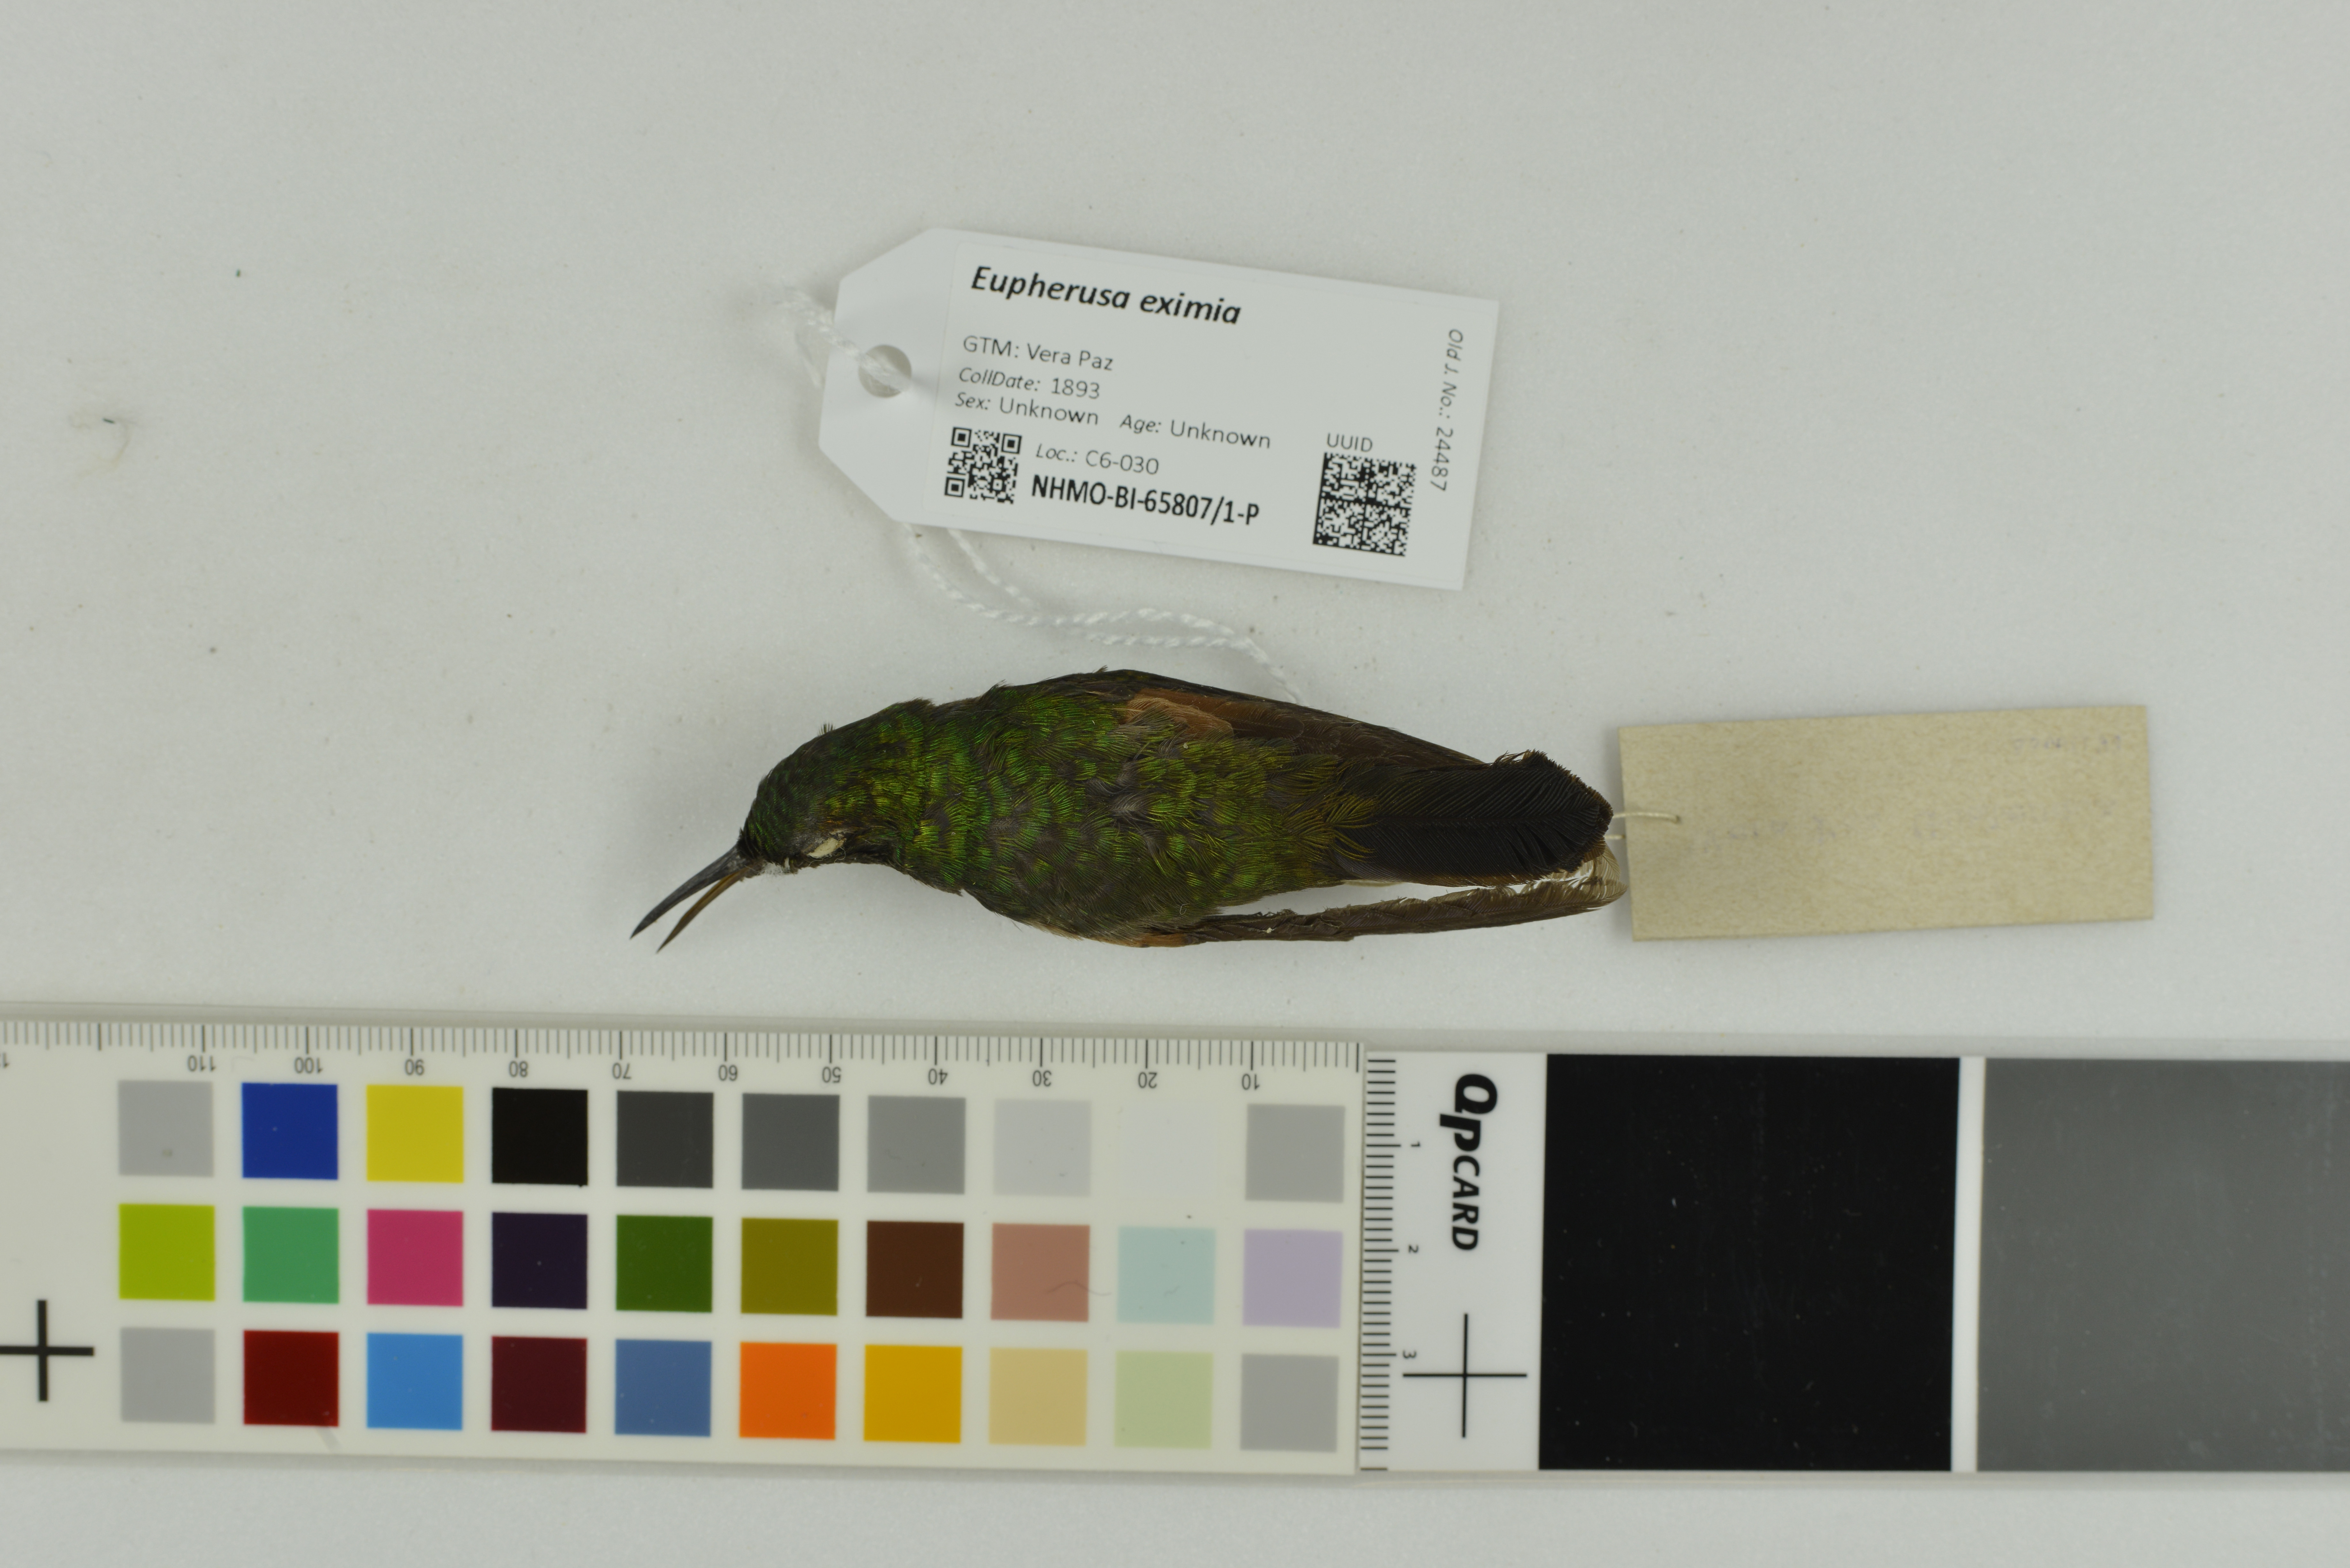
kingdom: Animalia
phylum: Chordata
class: Aves
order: Apodiformes
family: Trochilidae
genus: Eupherusa
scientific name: Eupherusa eximia
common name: Stripe-tailed hummingbird
